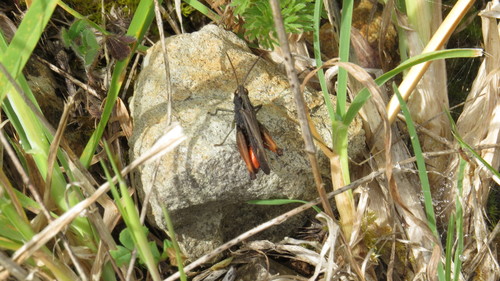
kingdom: Animalia
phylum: Arthropoda
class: Insecta
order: Orthoptera
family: Acrididae
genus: Omocestus
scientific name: Omocestus rufipes
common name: Woodland grasshopper
